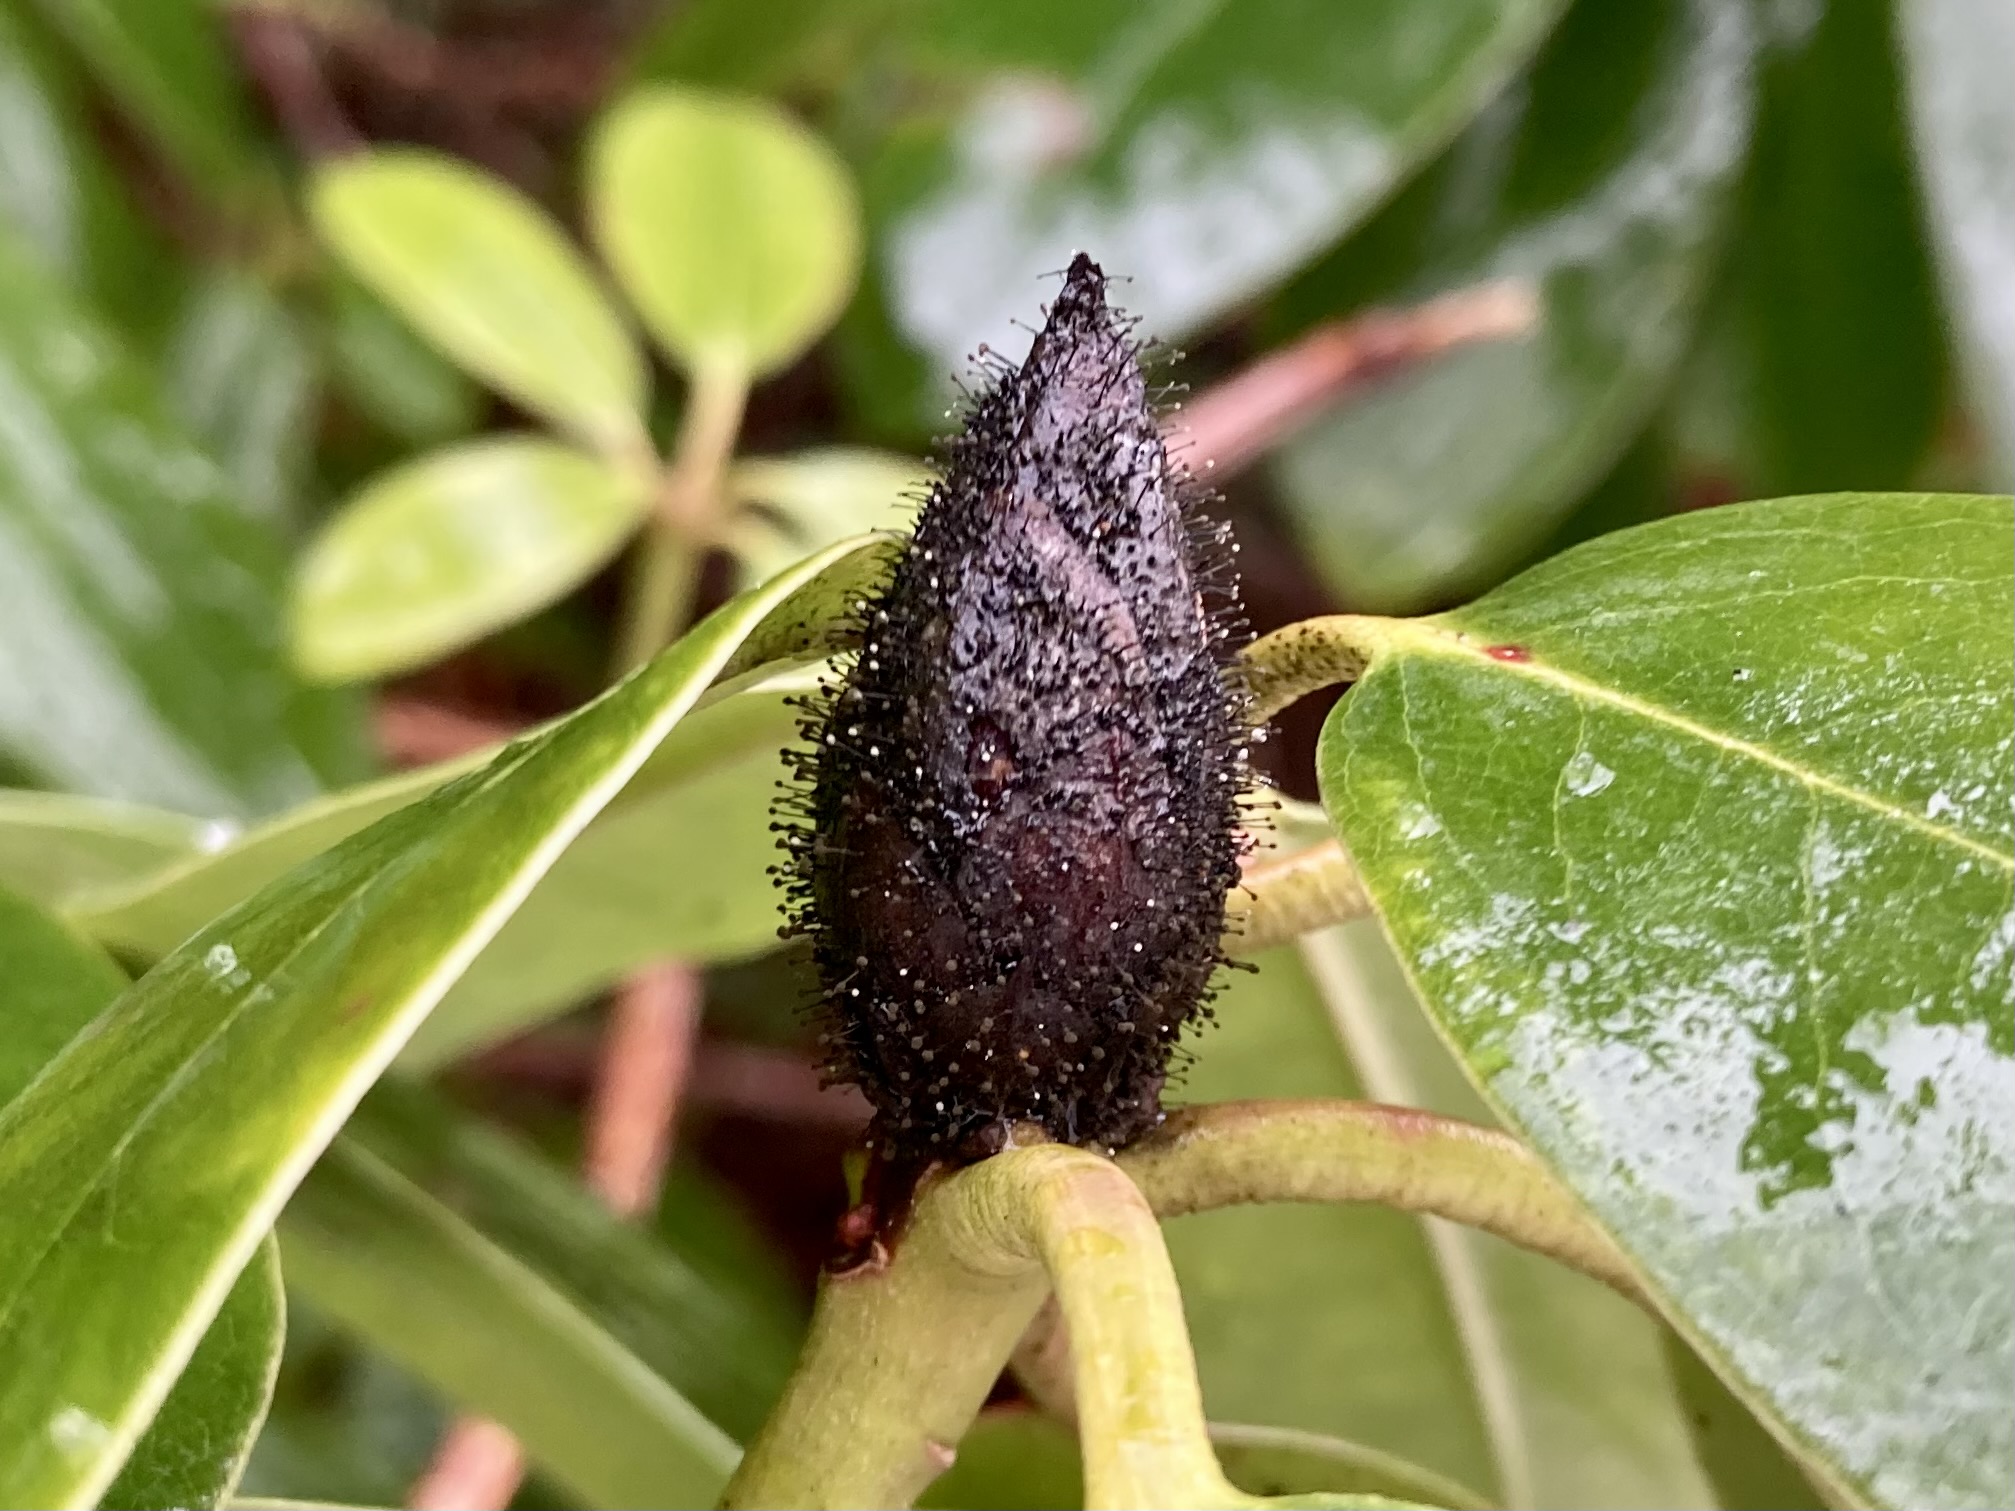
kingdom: Fungi
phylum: Ascomycota
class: Dothideomycetes
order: Pleosporales
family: Melanommataceae
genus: Seifertia
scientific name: Seifertia azaleae
